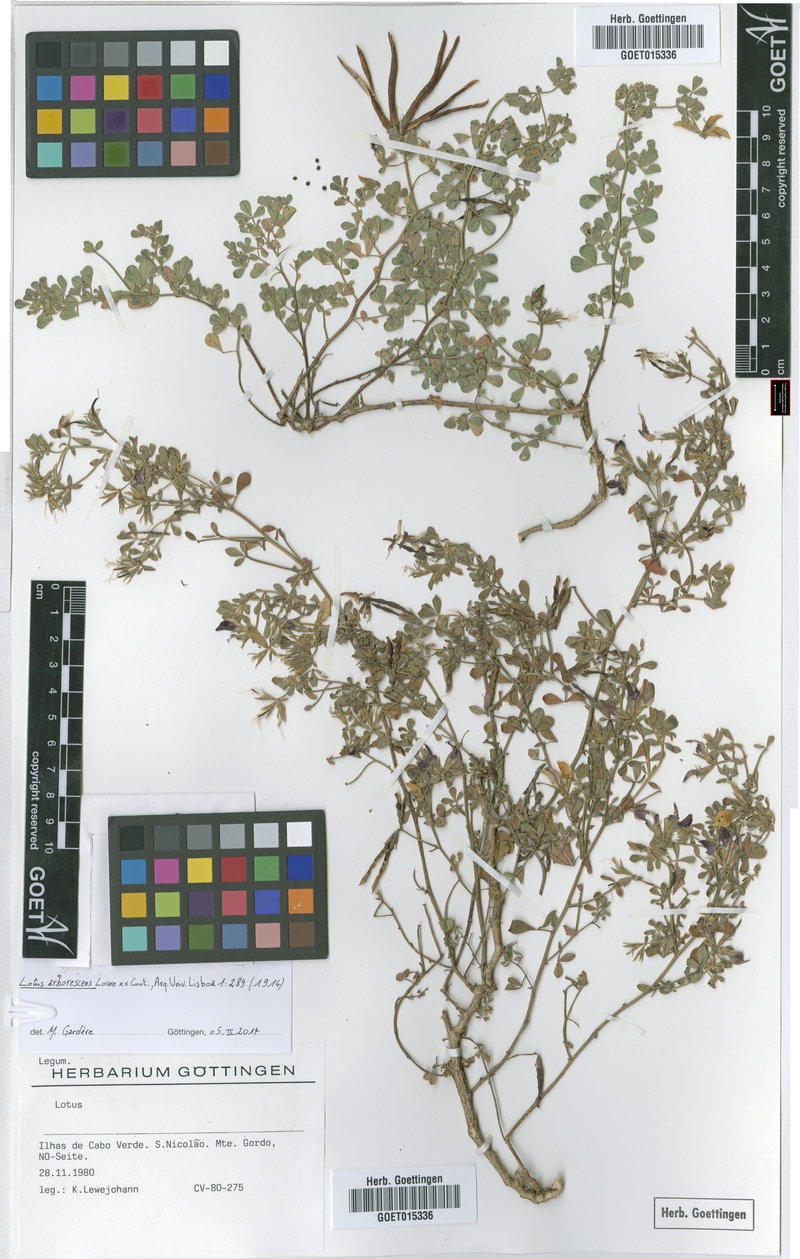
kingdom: Plantae
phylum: Tracheophyta
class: Magnoliopsida
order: Fabales
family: Fabaceae
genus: Lotus
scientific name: Lotus purpureus
